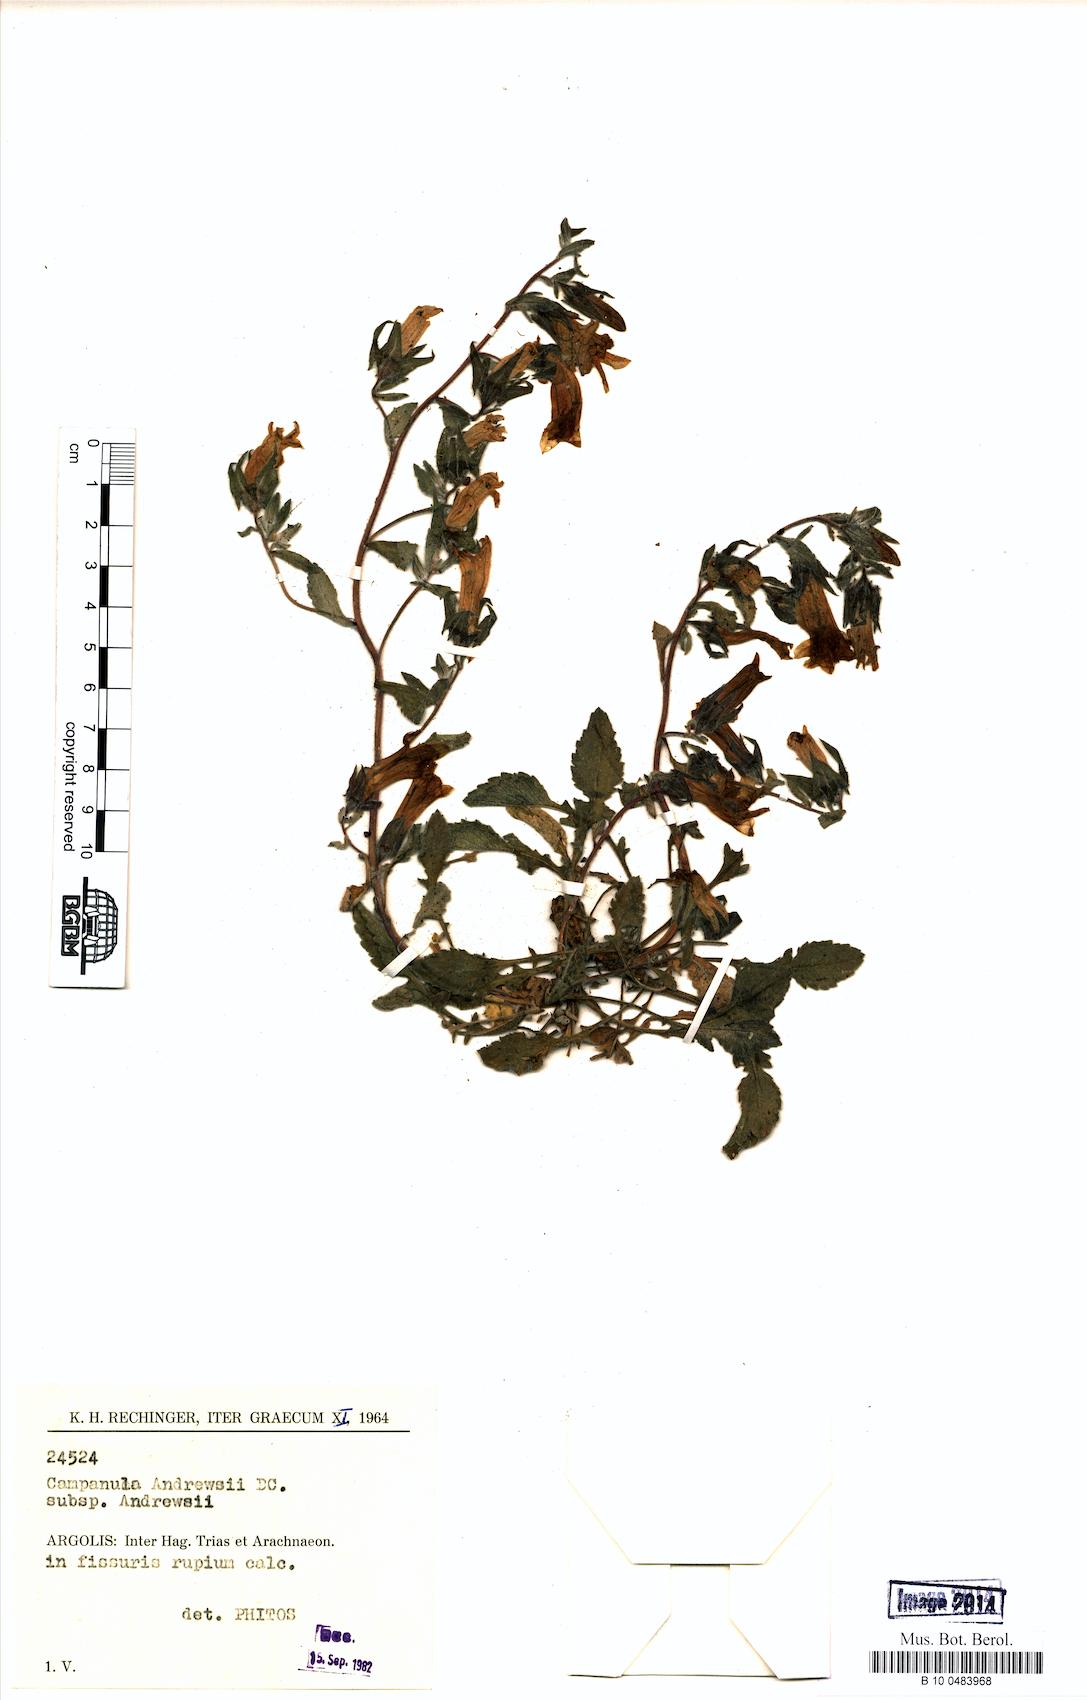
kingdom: Plantae
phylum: Tracheophyta
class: Magnoliopsida
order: Asterales
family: Campanulaceae
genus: Campanula
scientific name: Campanula andrewsii
